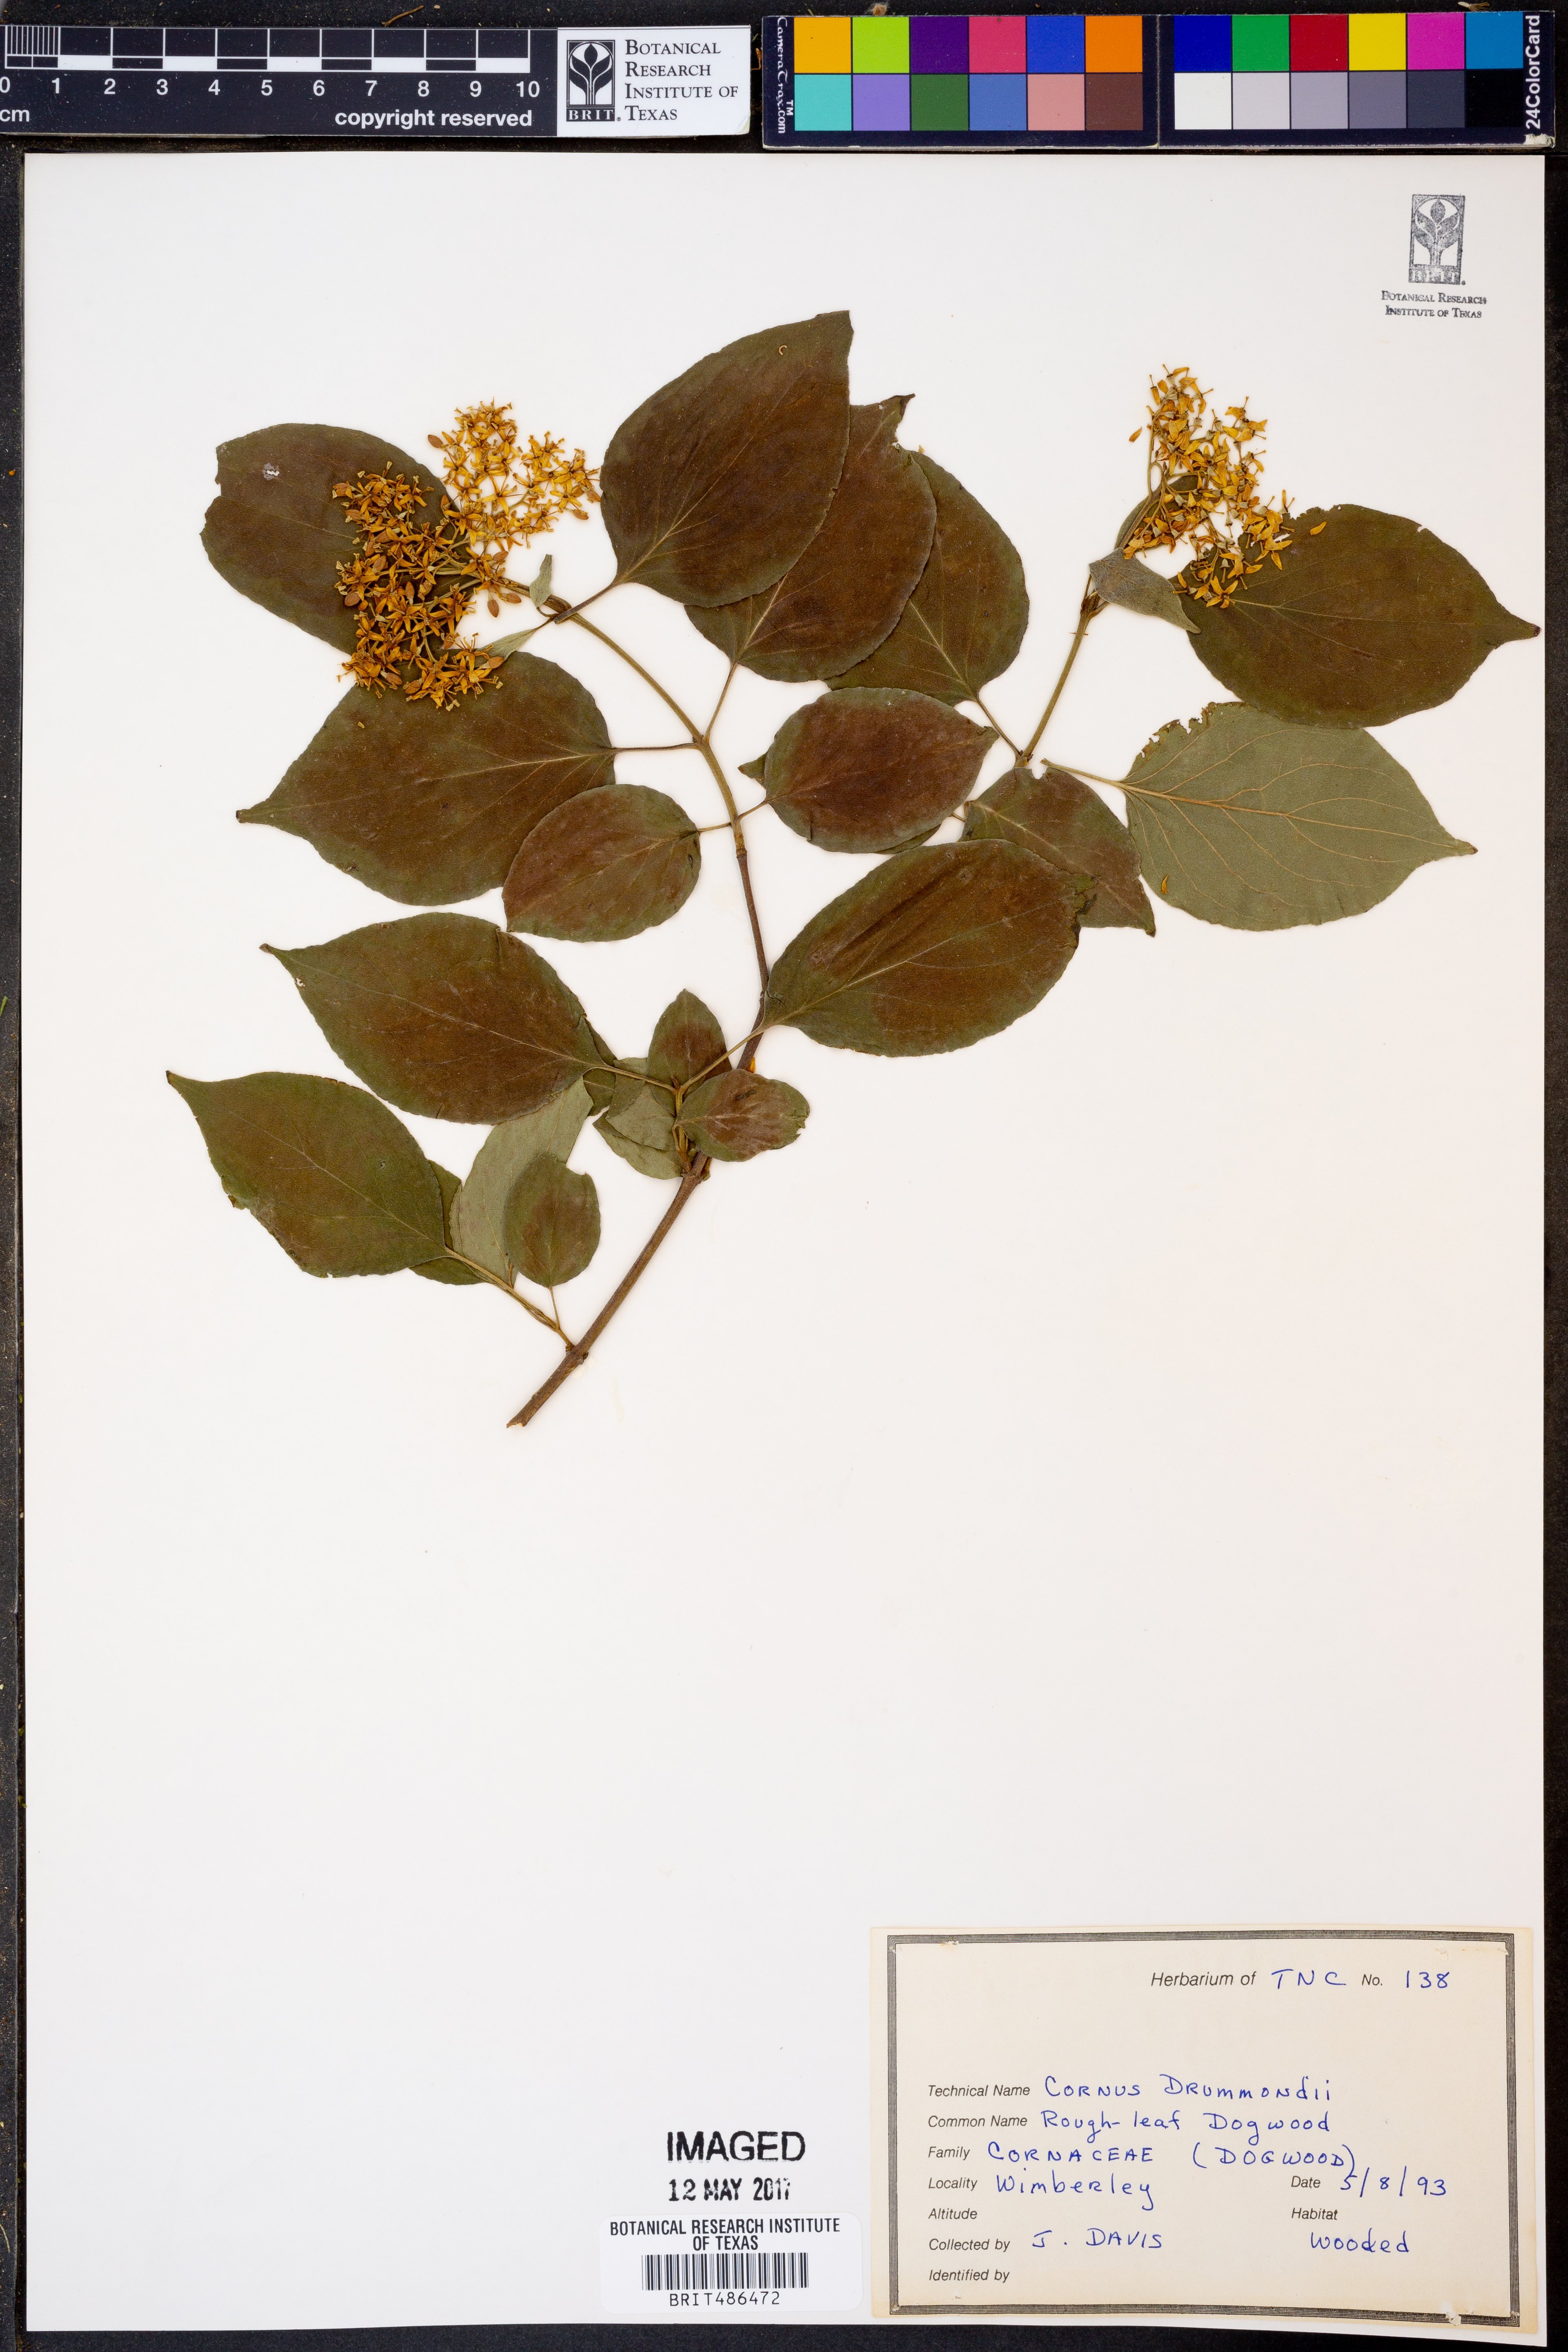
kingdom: Plantae
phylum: Tracheophyta
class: Magnoliopsida
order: Cornales
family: Cornaceae
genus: Cornus
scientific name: Cornus drummondii
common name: Rough-leaf dogwood
